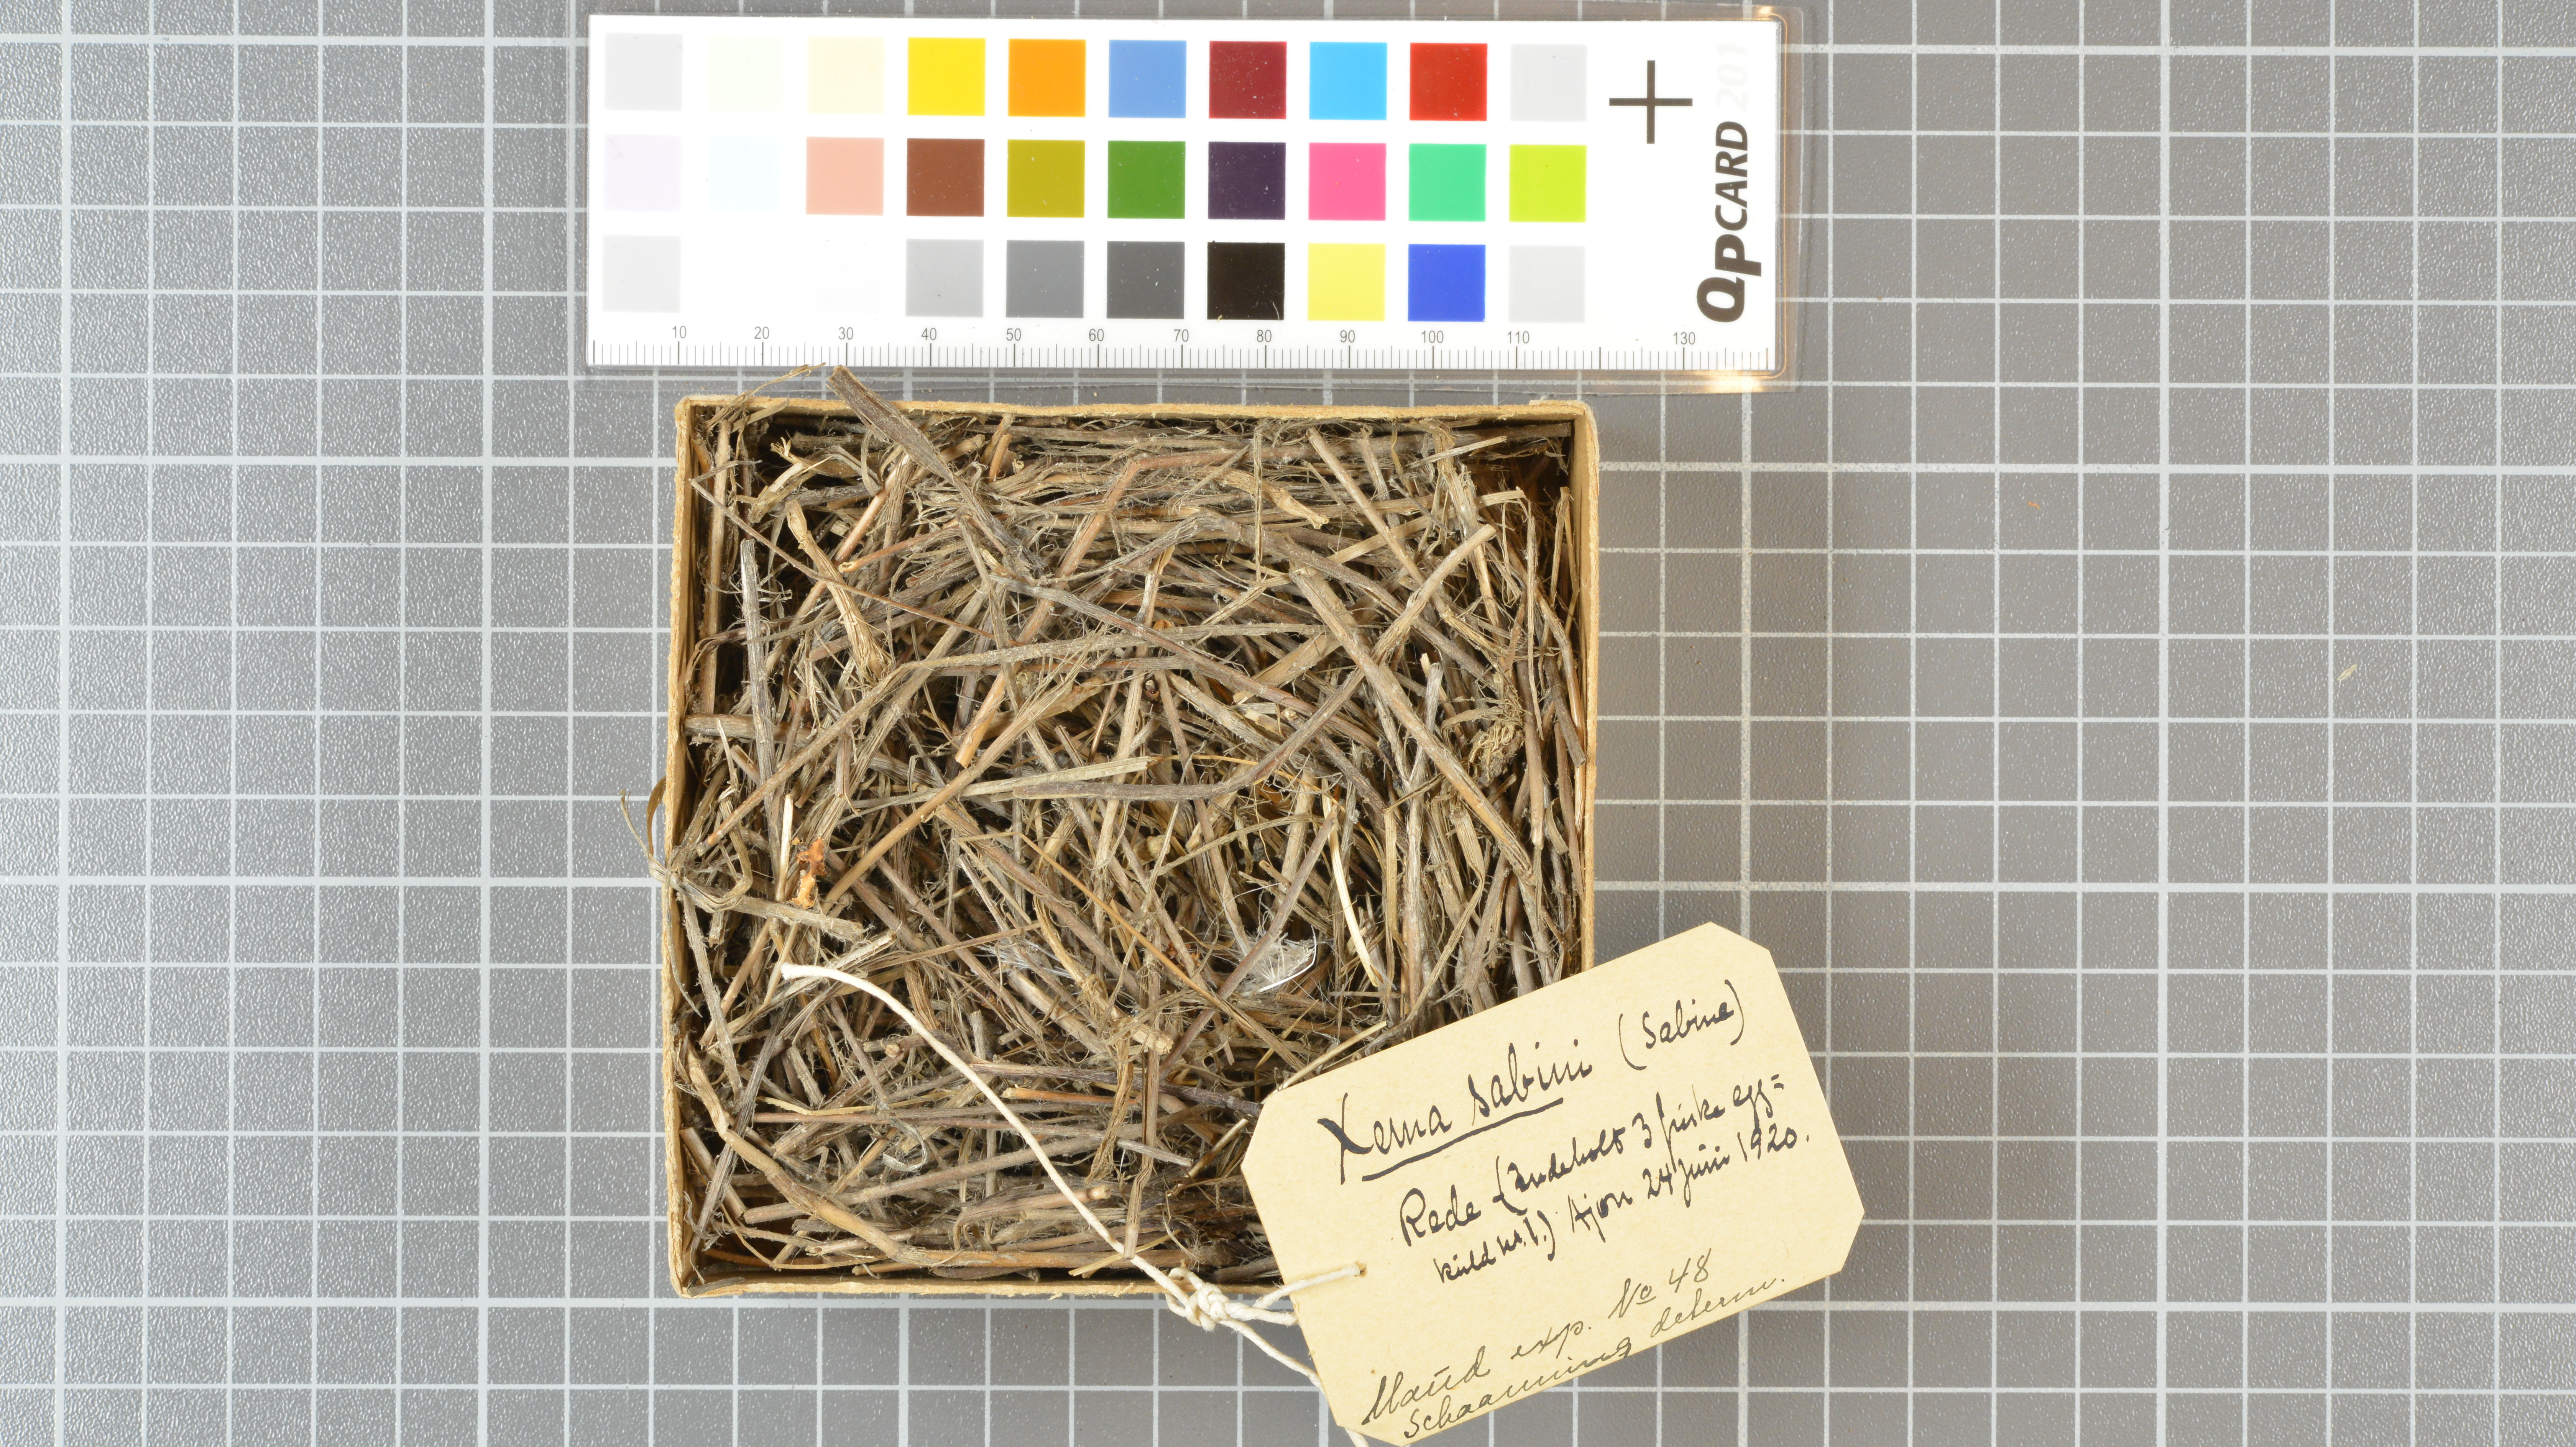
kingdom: Animalia
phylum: Chordata
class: Aves
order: Charadriiformes
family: Laridae
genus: Xema
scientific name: Xema sabini
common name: Sabine's gull
